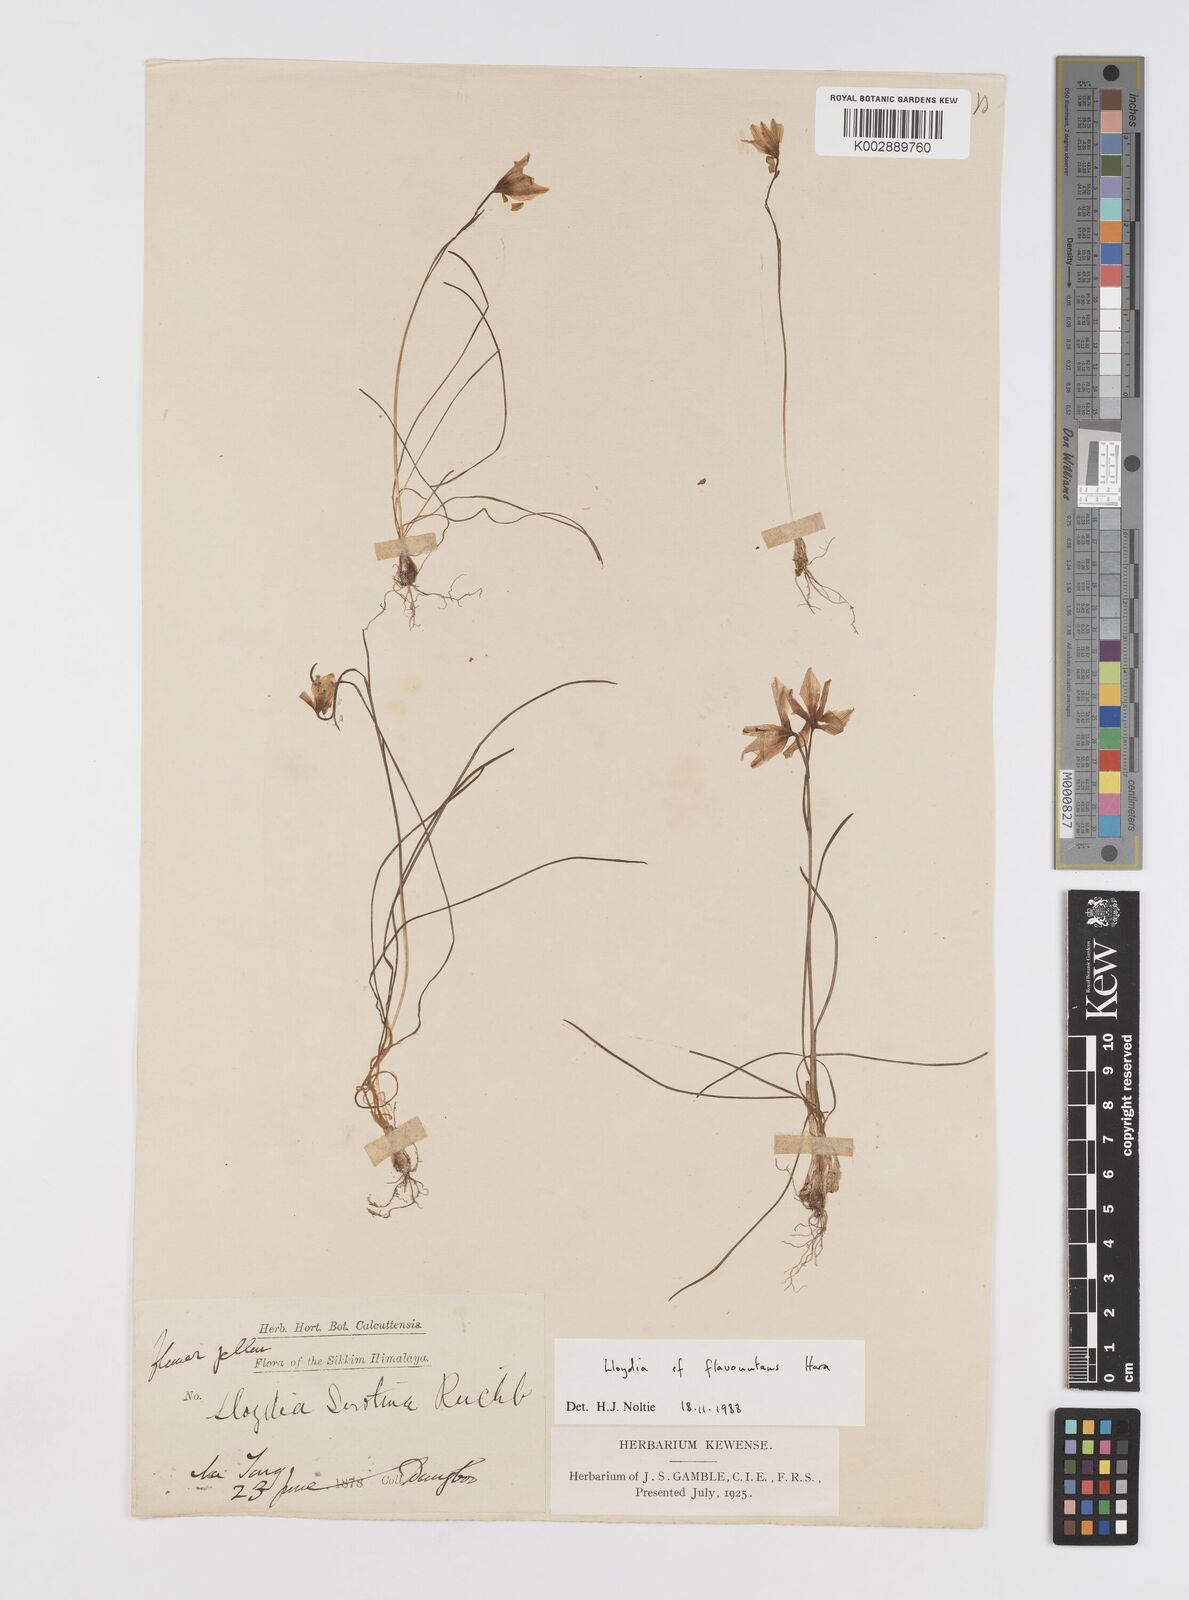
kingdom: Plantae
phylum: Tracheophyta
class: Liliopsida
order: Liliales
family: Liliaceae
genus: Gagea
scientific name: Gagea flavonutans
